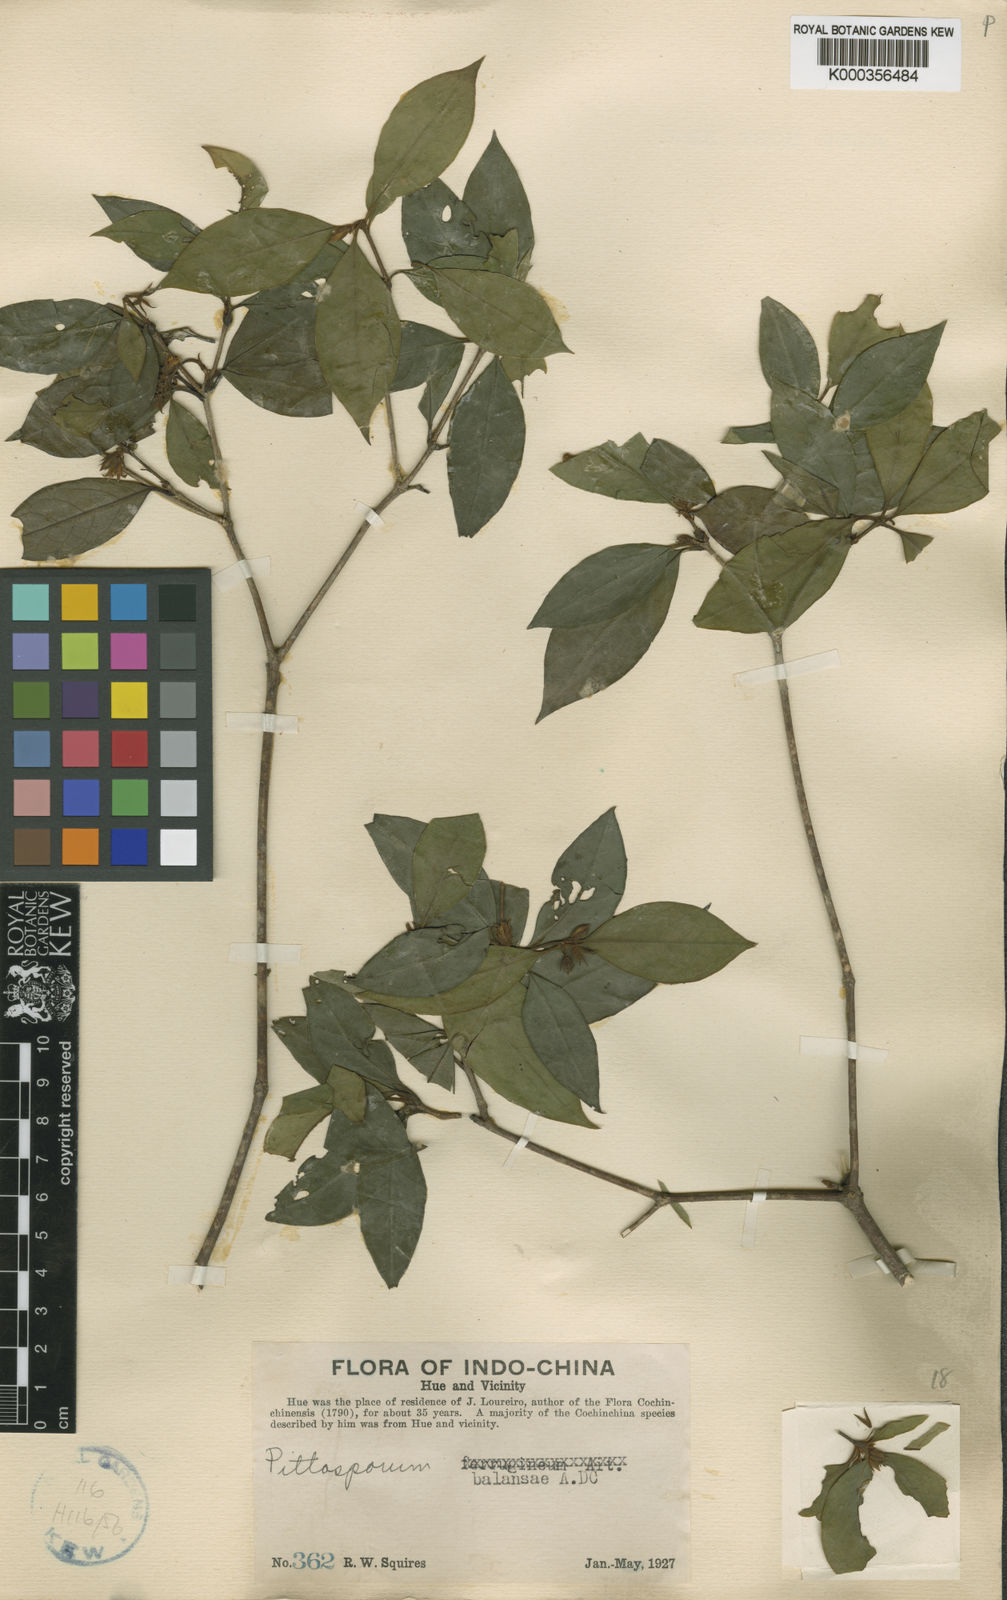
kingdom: Plantae
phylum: Tracheophyta
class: Magnoliopsida
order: Apiales
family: Pittosporaceae
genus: Pittosporum
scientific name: Pittosporum
